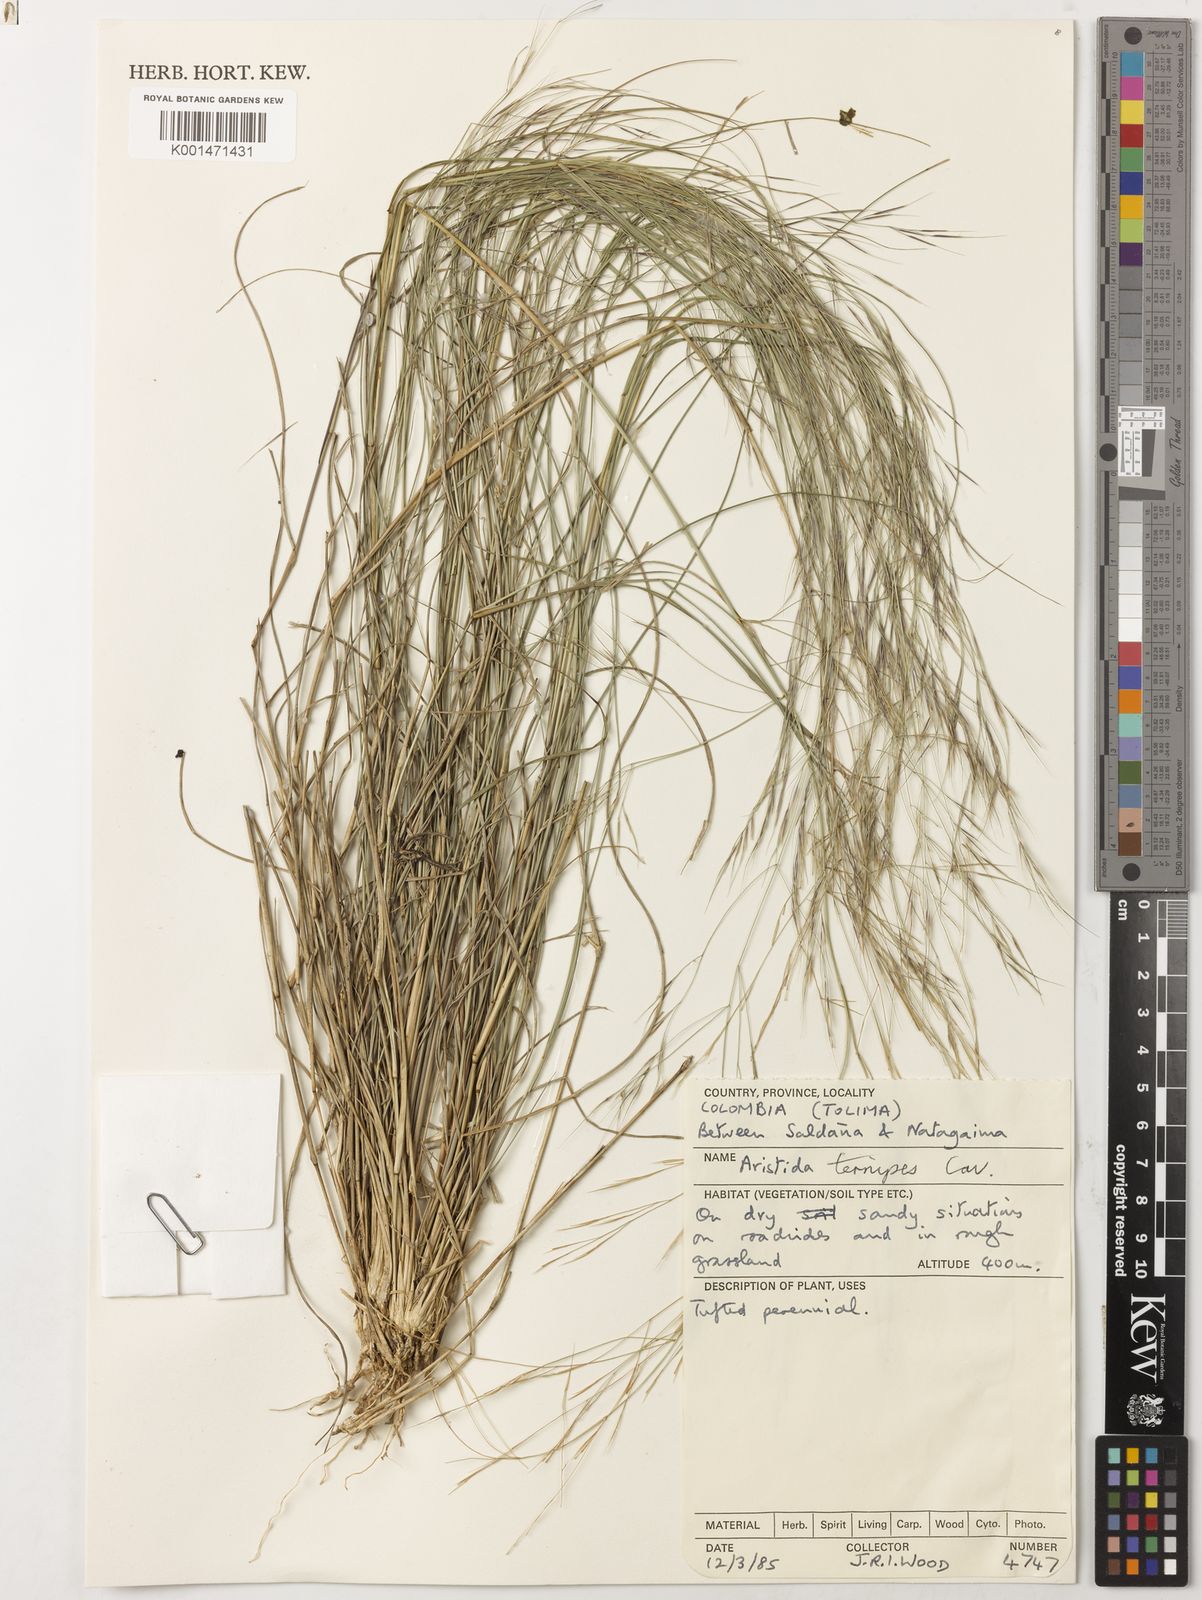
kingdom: Plantae
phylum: Tracheophyta
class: Liliopsida
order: Poales
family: Poaceae
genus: Aristida
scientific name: Aristida ternipes
